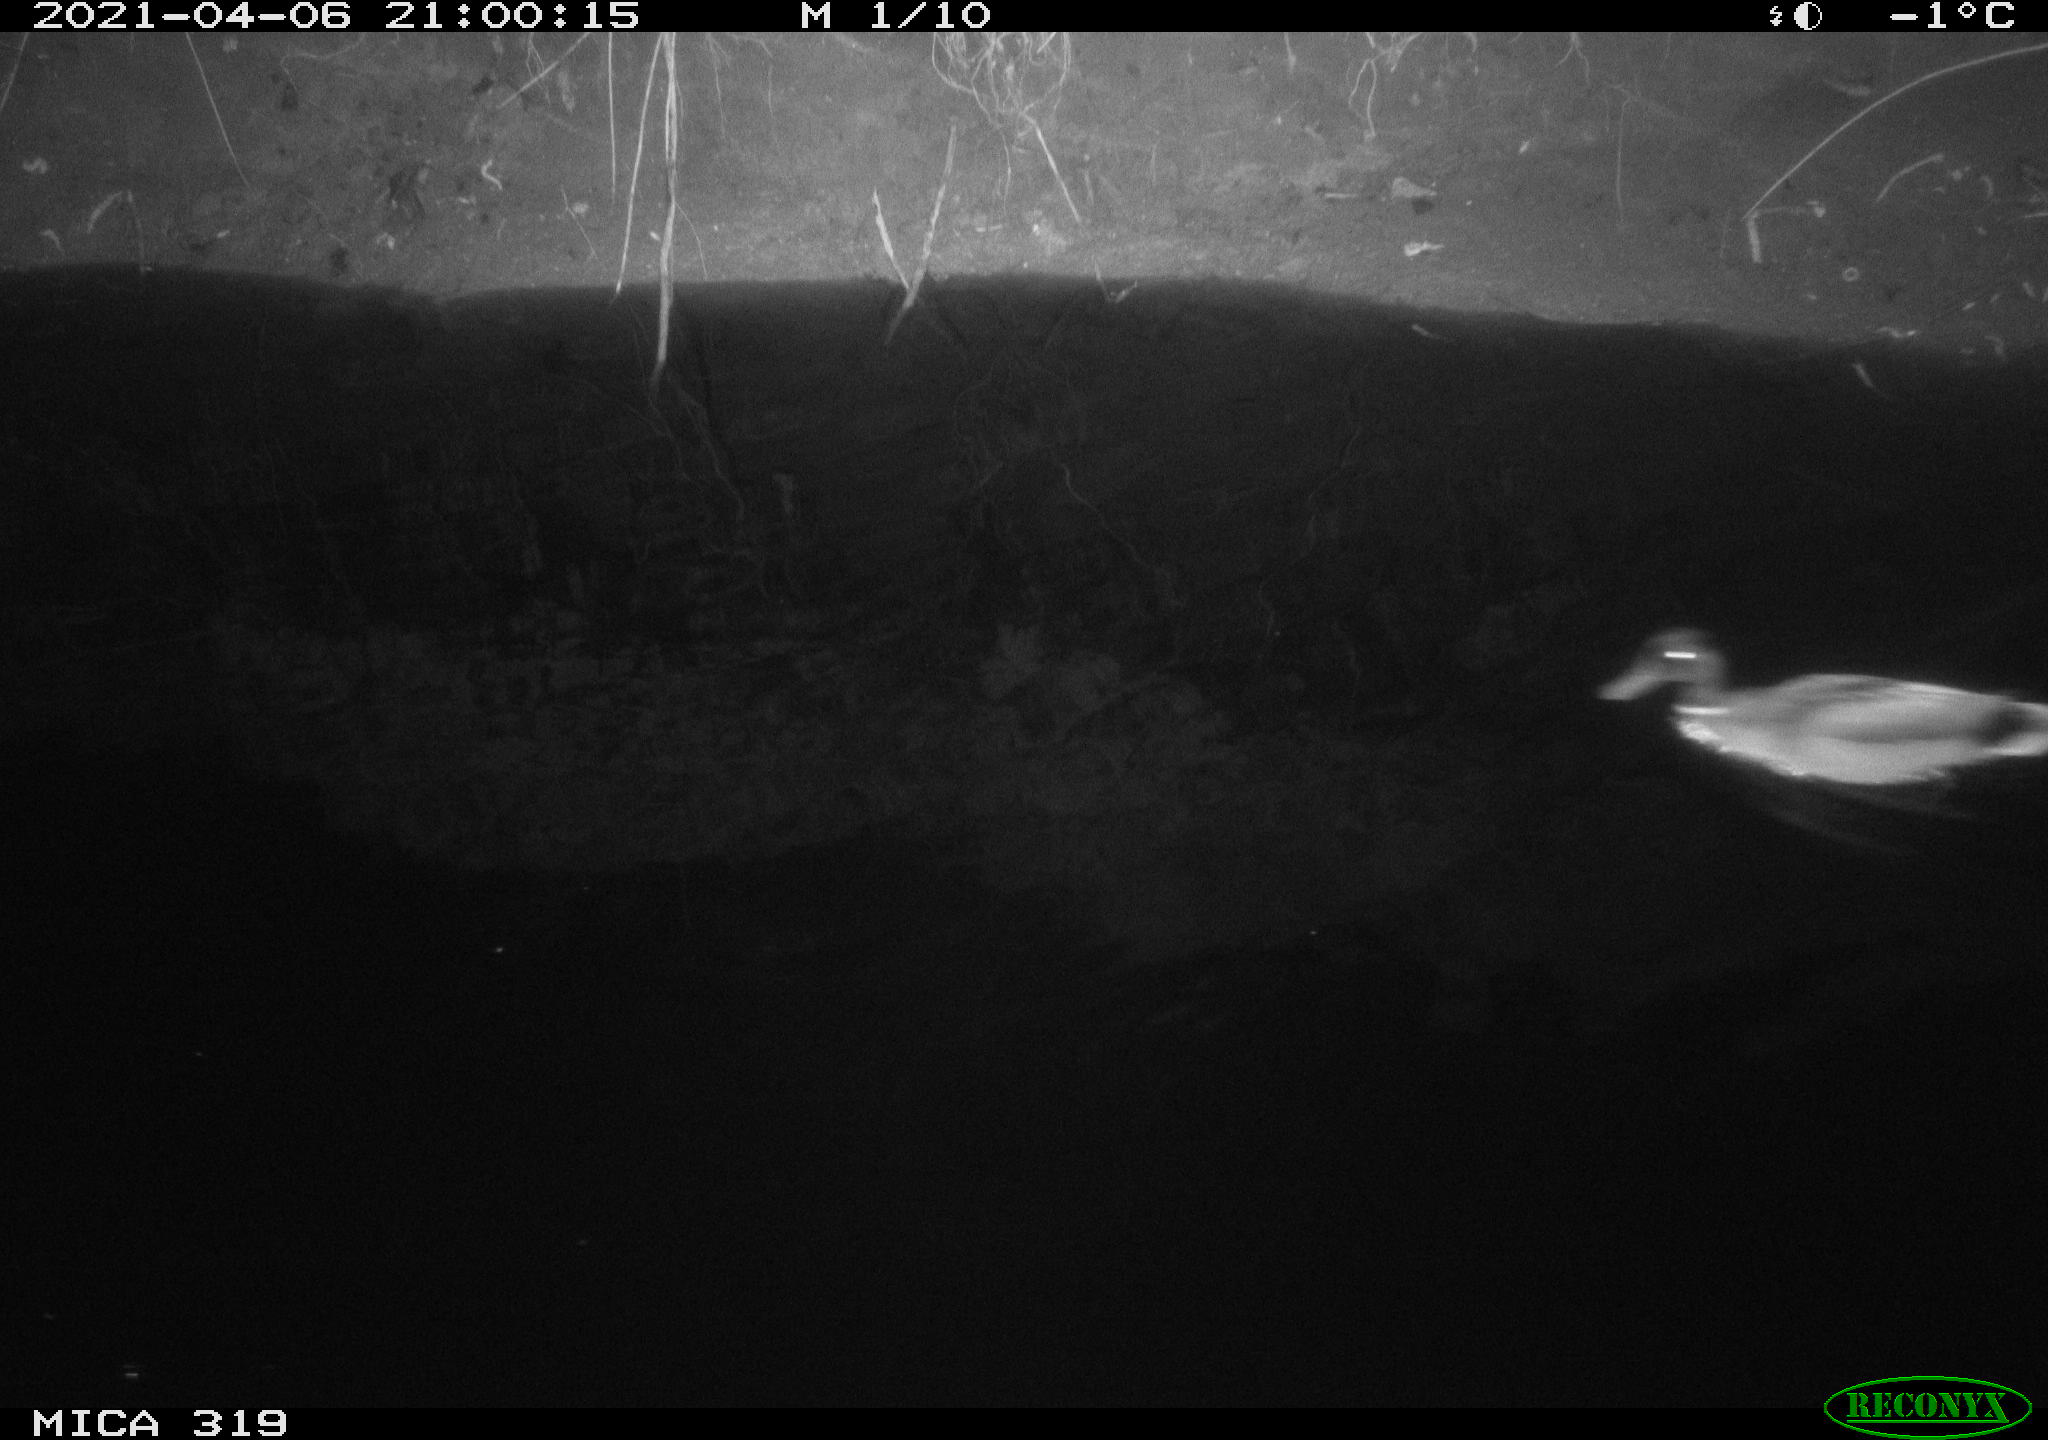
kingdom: Animalia
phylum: Chordata
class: Aves
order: Anseriformes
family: Anatidae
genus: Anas
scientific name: Anas platyrhynchos
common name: Mallard
